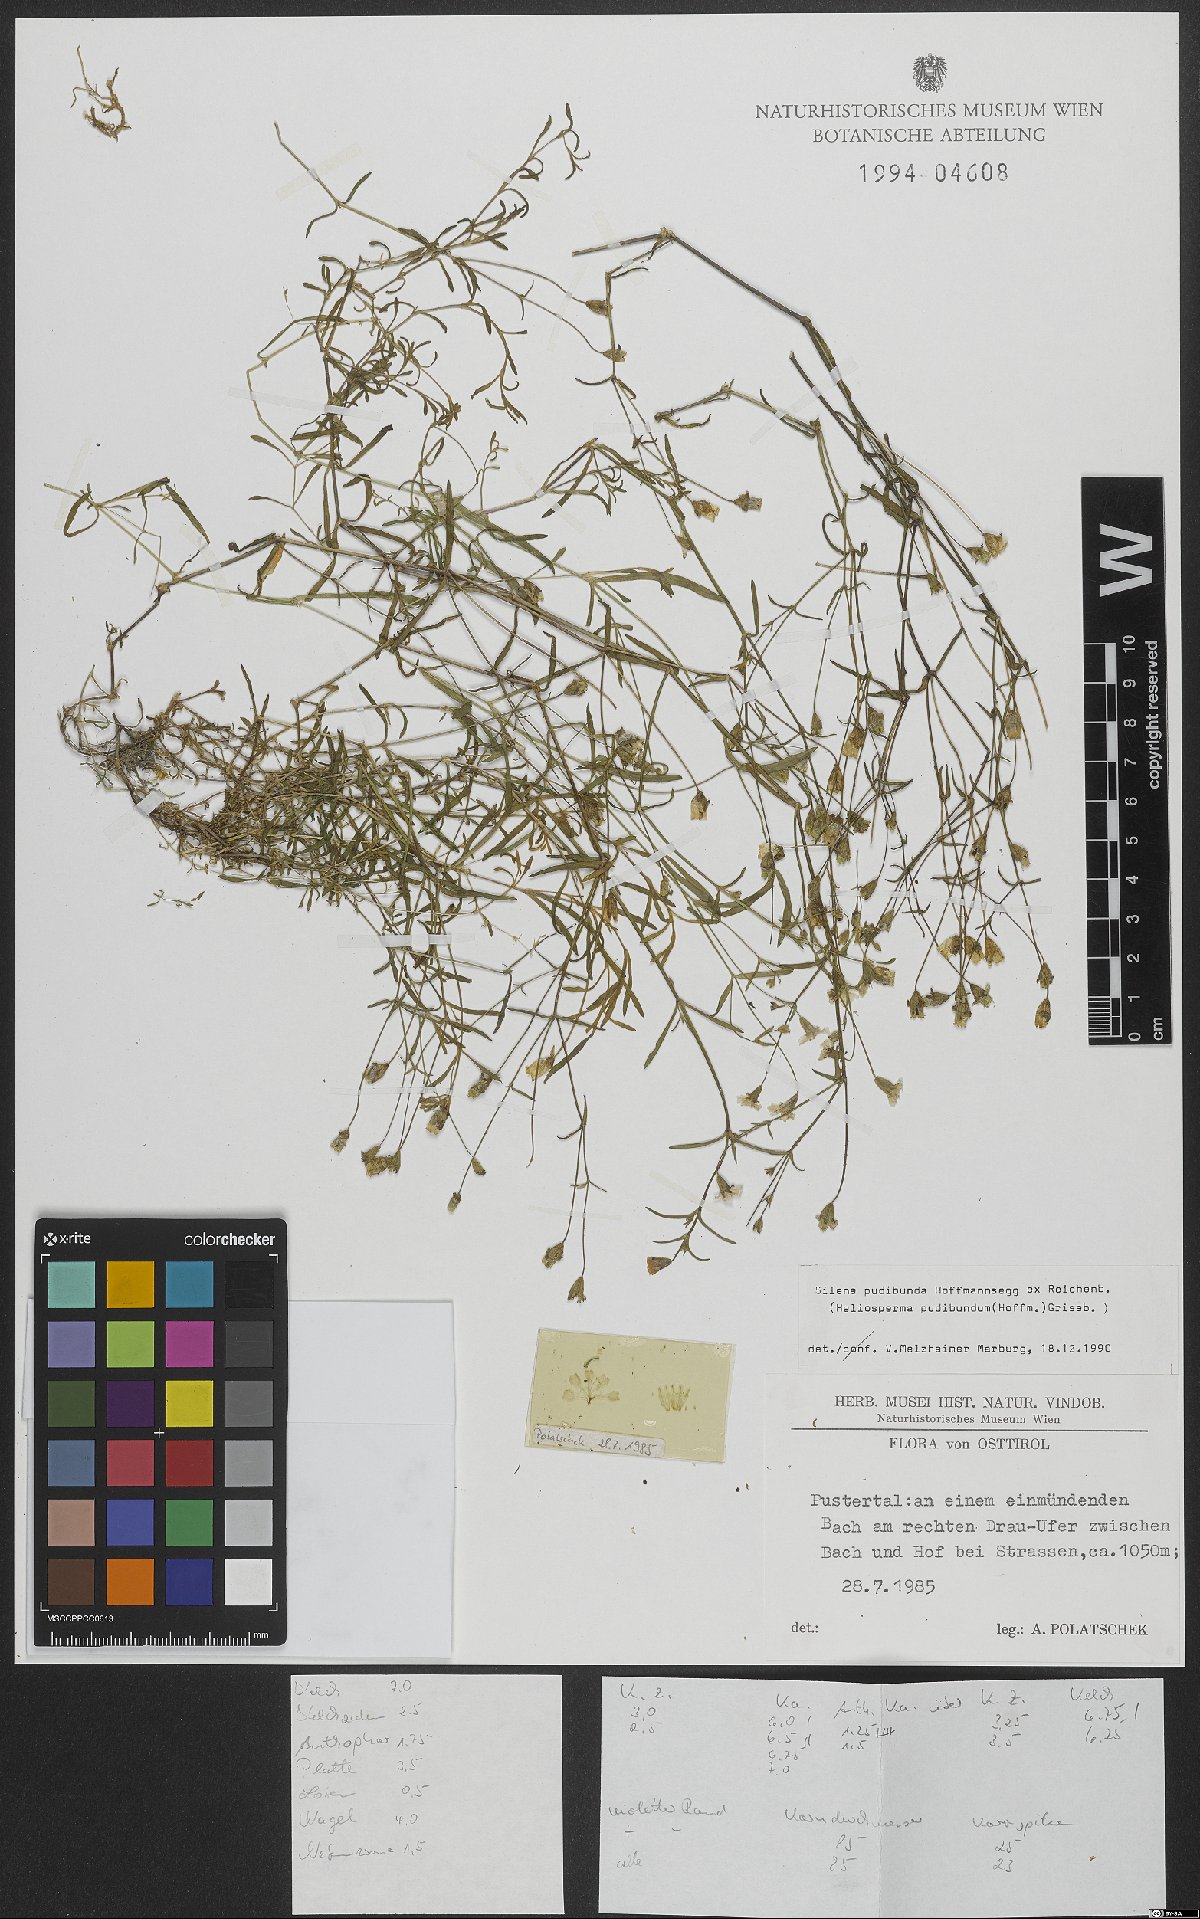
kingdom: Plantae
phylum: Tracheophyta
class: Magnoliopsida
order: Caryophyllales
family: Caryophyllaceae
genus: Heliosperma
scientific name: Heliosperma pudibundum
